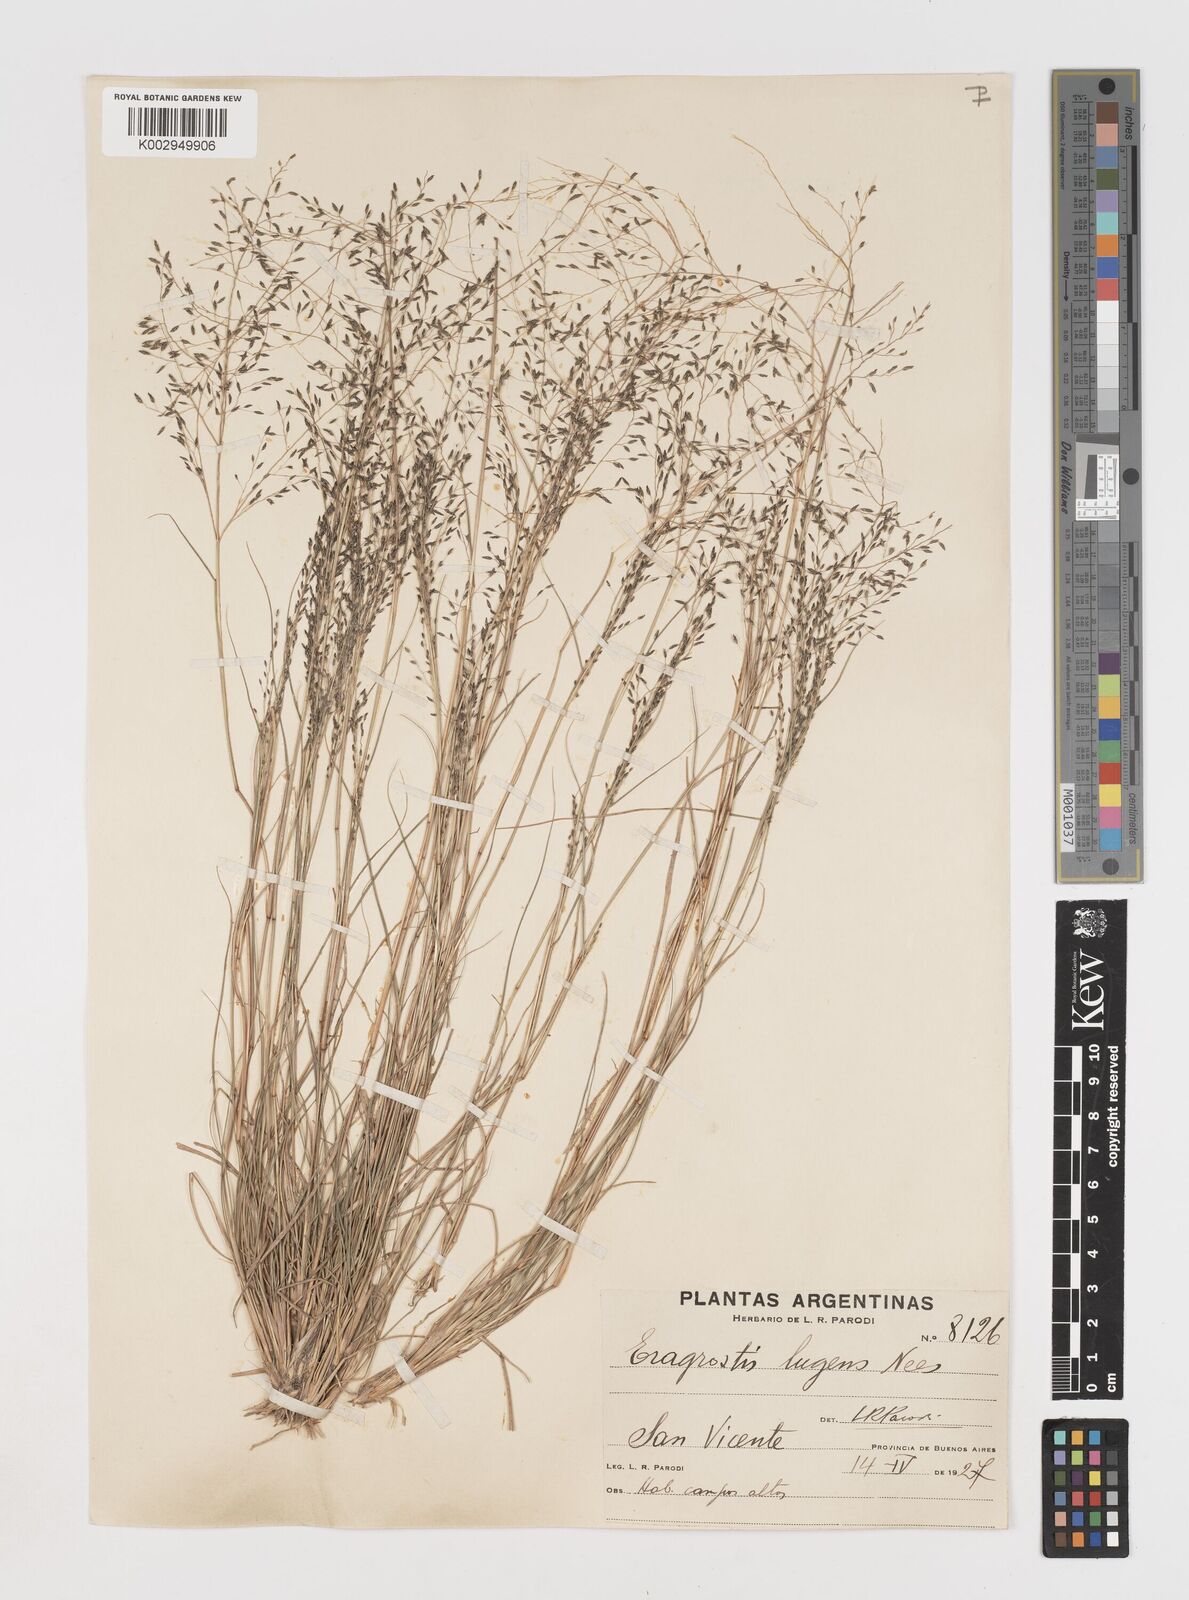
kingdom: Plantae
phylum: Tracheophyta
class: Liliopsida
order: Poales
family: Poaceae
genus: Eragrostis
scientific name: Eragrostis lugens
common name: Mourning love grass
